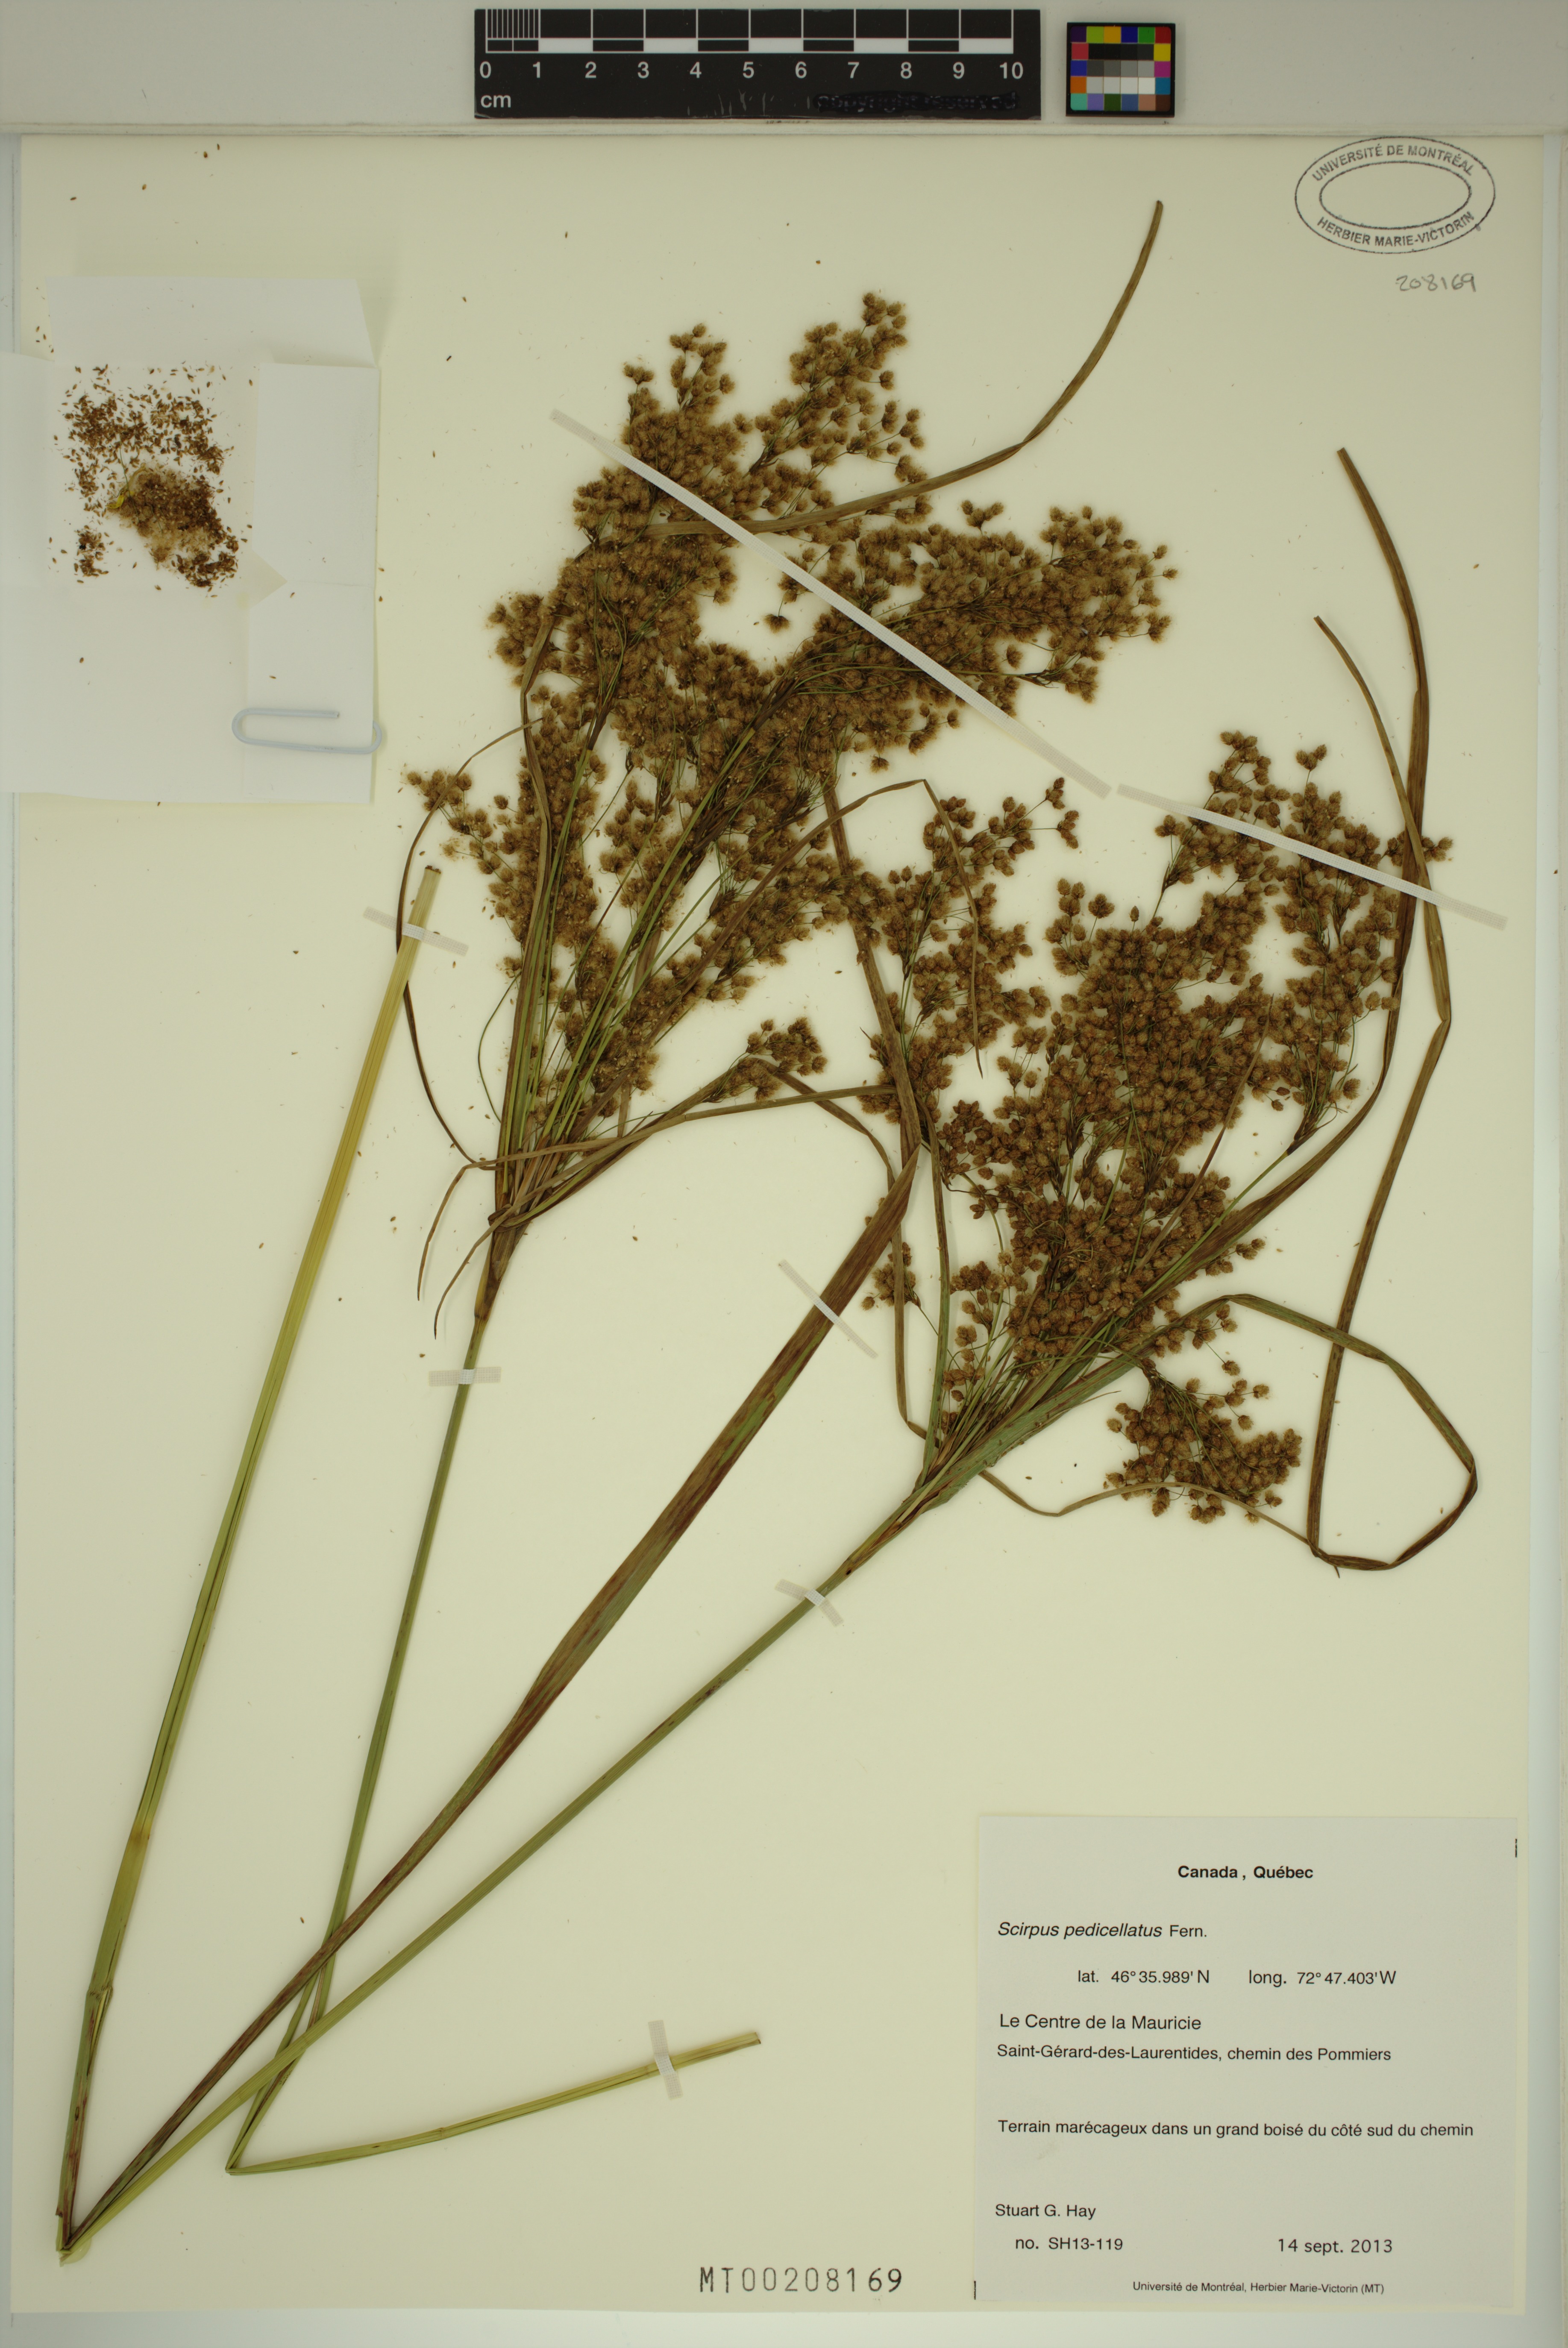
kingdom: Plantae
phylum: Tracheophyta
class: Liliopsida
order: Poales
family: Cyperaceae
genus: Scirpus
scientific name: Scirpus pedicellatus
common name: Pedicelled bulrush
